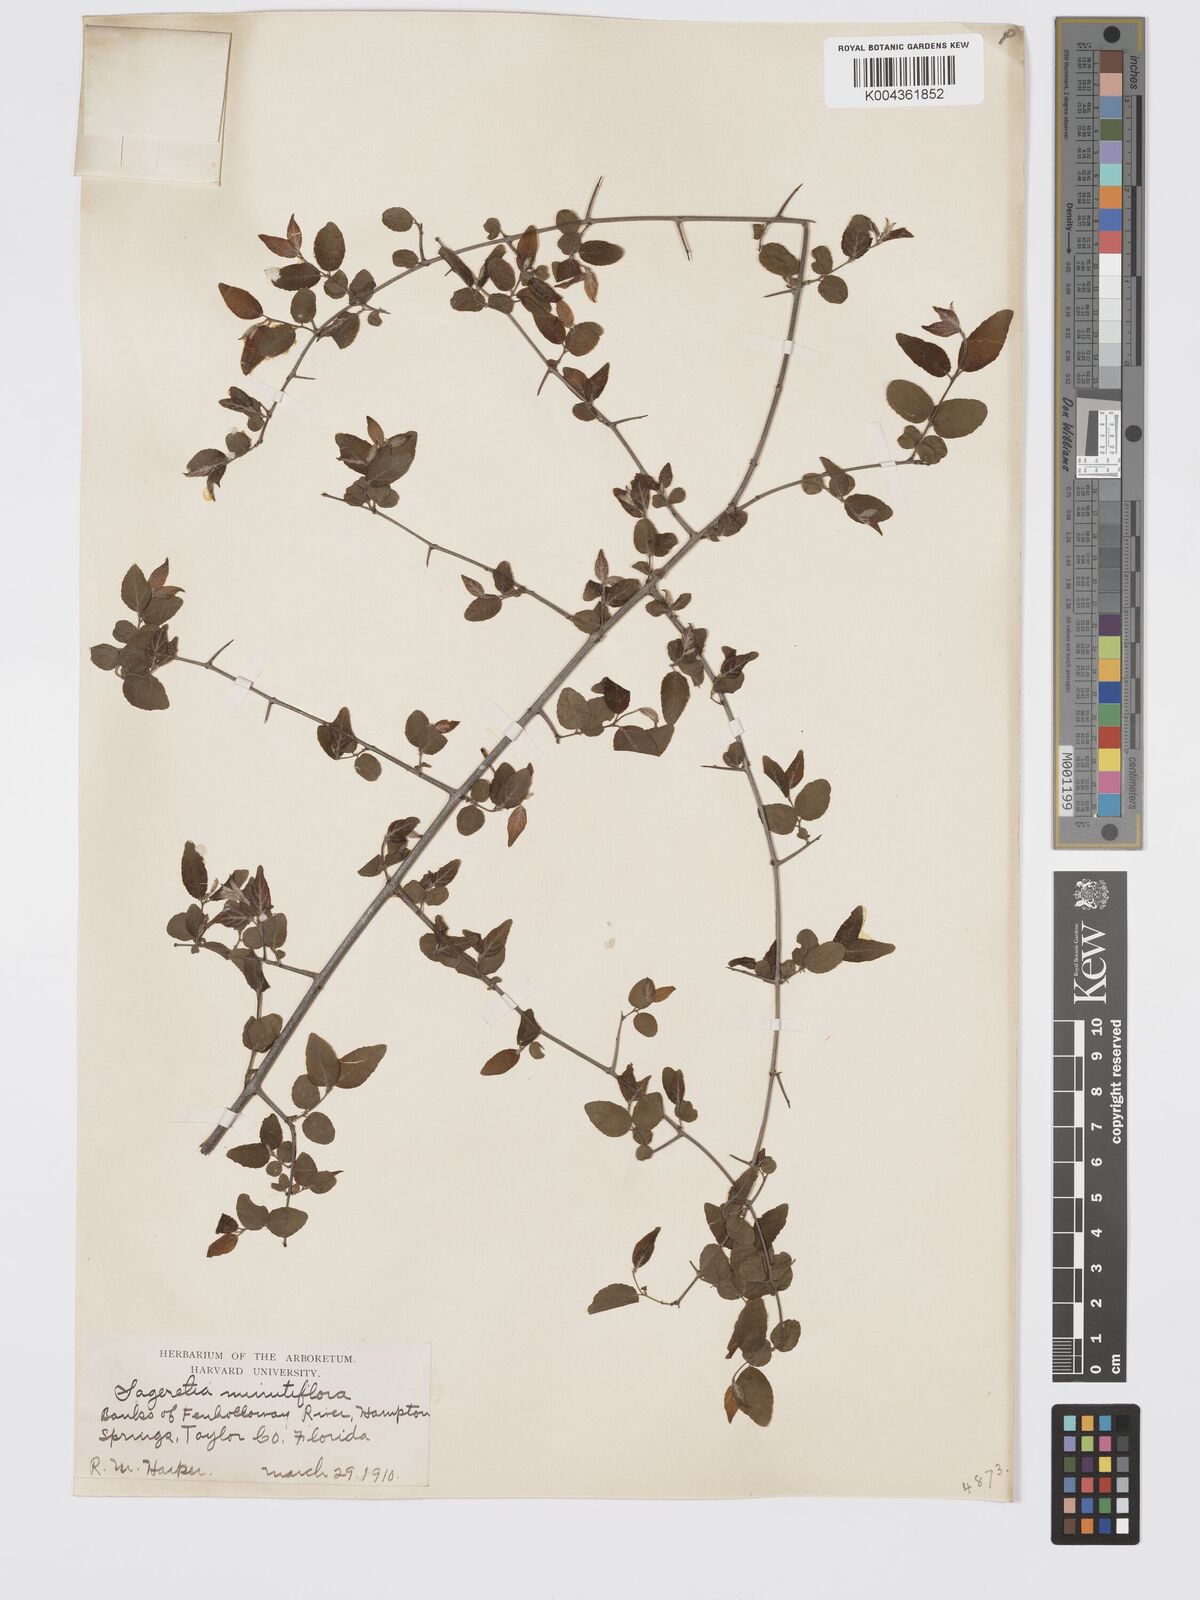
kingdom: Plantae
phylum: Tracheophyta
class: Magnoliopsida
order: Rosales
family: Rhamnaceae
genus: Sageretia
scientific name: Sageretia minutiflora
